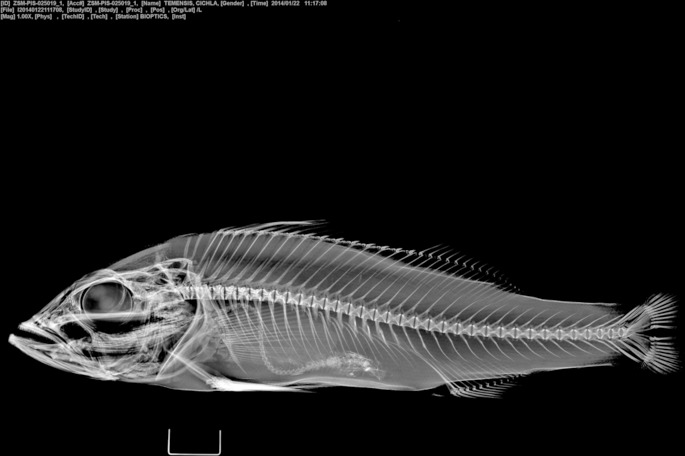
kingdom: Animalia
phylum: Chordata
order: Perciformes
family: Cichlidae
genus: Cichla
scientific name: Cichla temensis
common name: Speckled pavon
